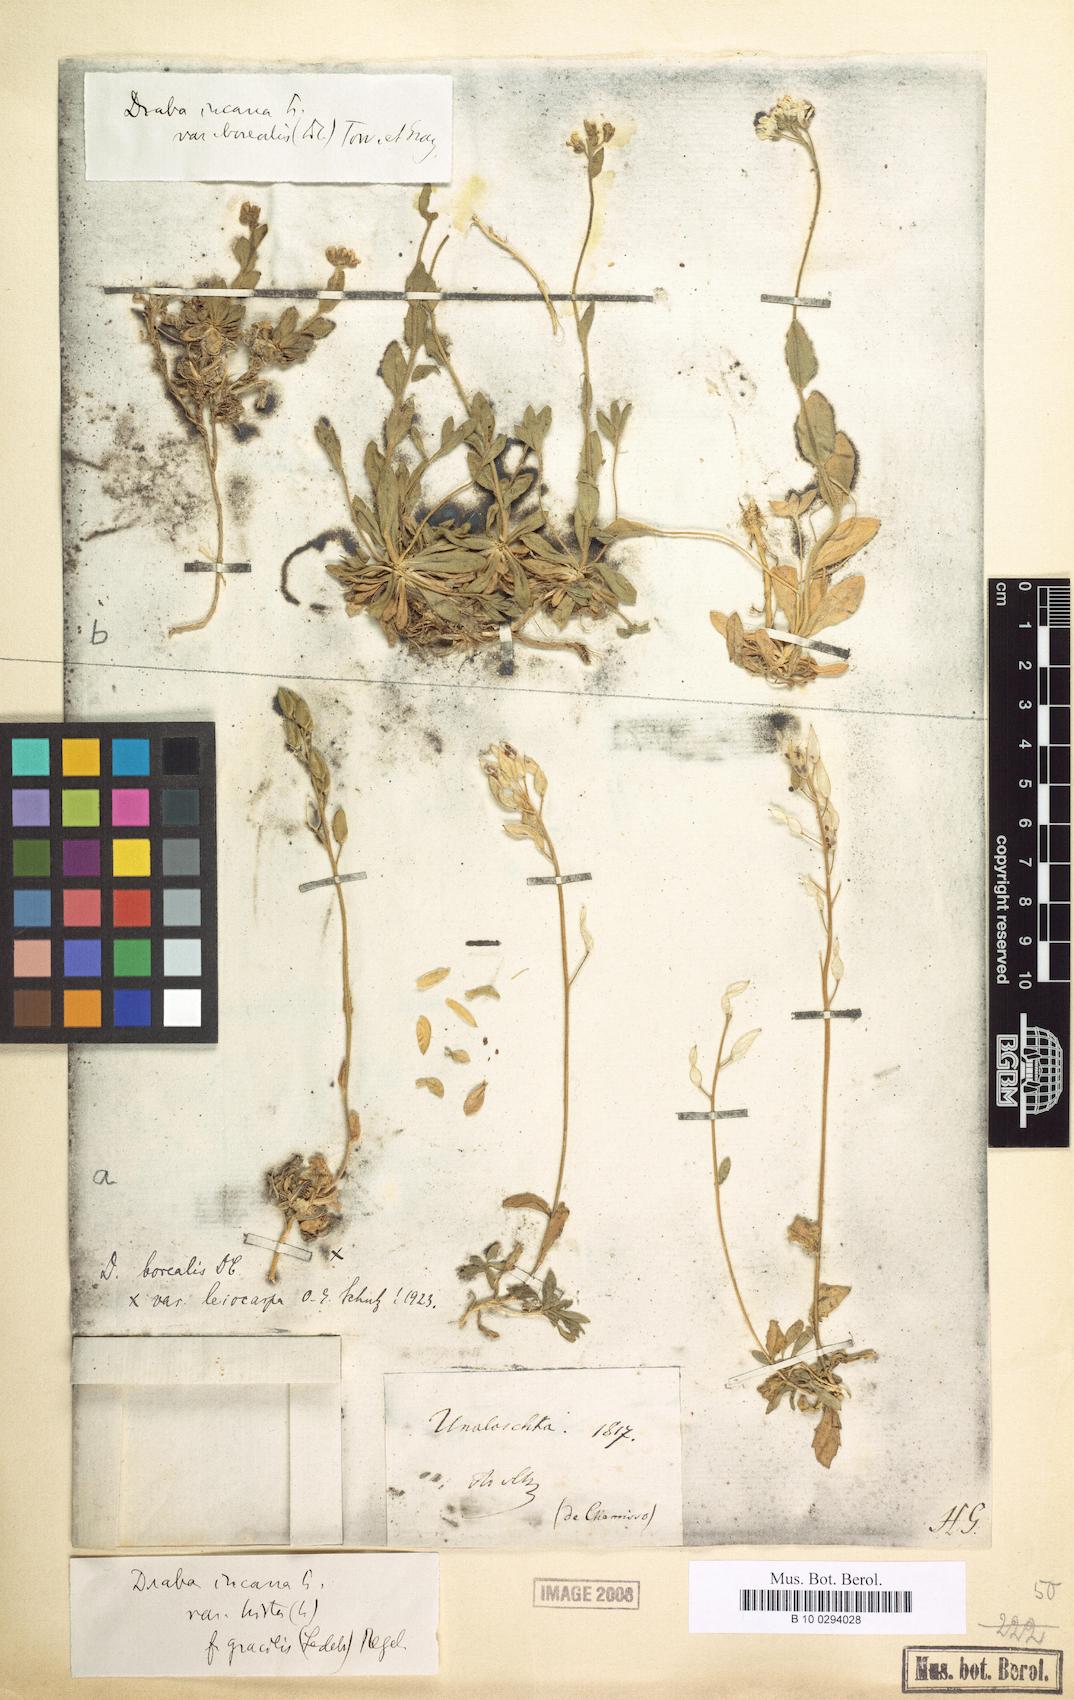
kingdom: Plantae
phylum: Tracheophyta
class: Magnoliopsida
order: Brassicales
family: Brassicaceae
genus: Draba
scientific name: Draba borealis
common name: Boreal draba
